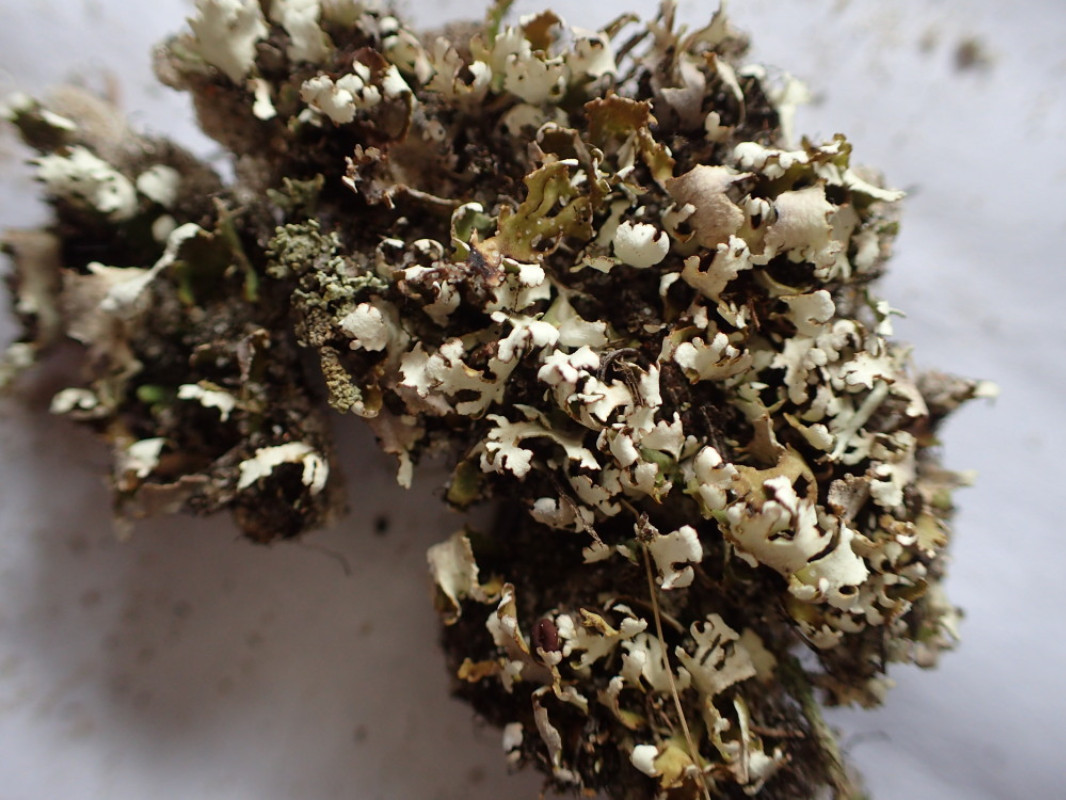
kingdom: Fungi
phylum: Ascomycota
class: Lecanoromycetes
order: Lecanorales
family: Cladoniaceae
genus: Cladonia
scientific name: Cladonia foliacea
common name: fliget bægerlav
